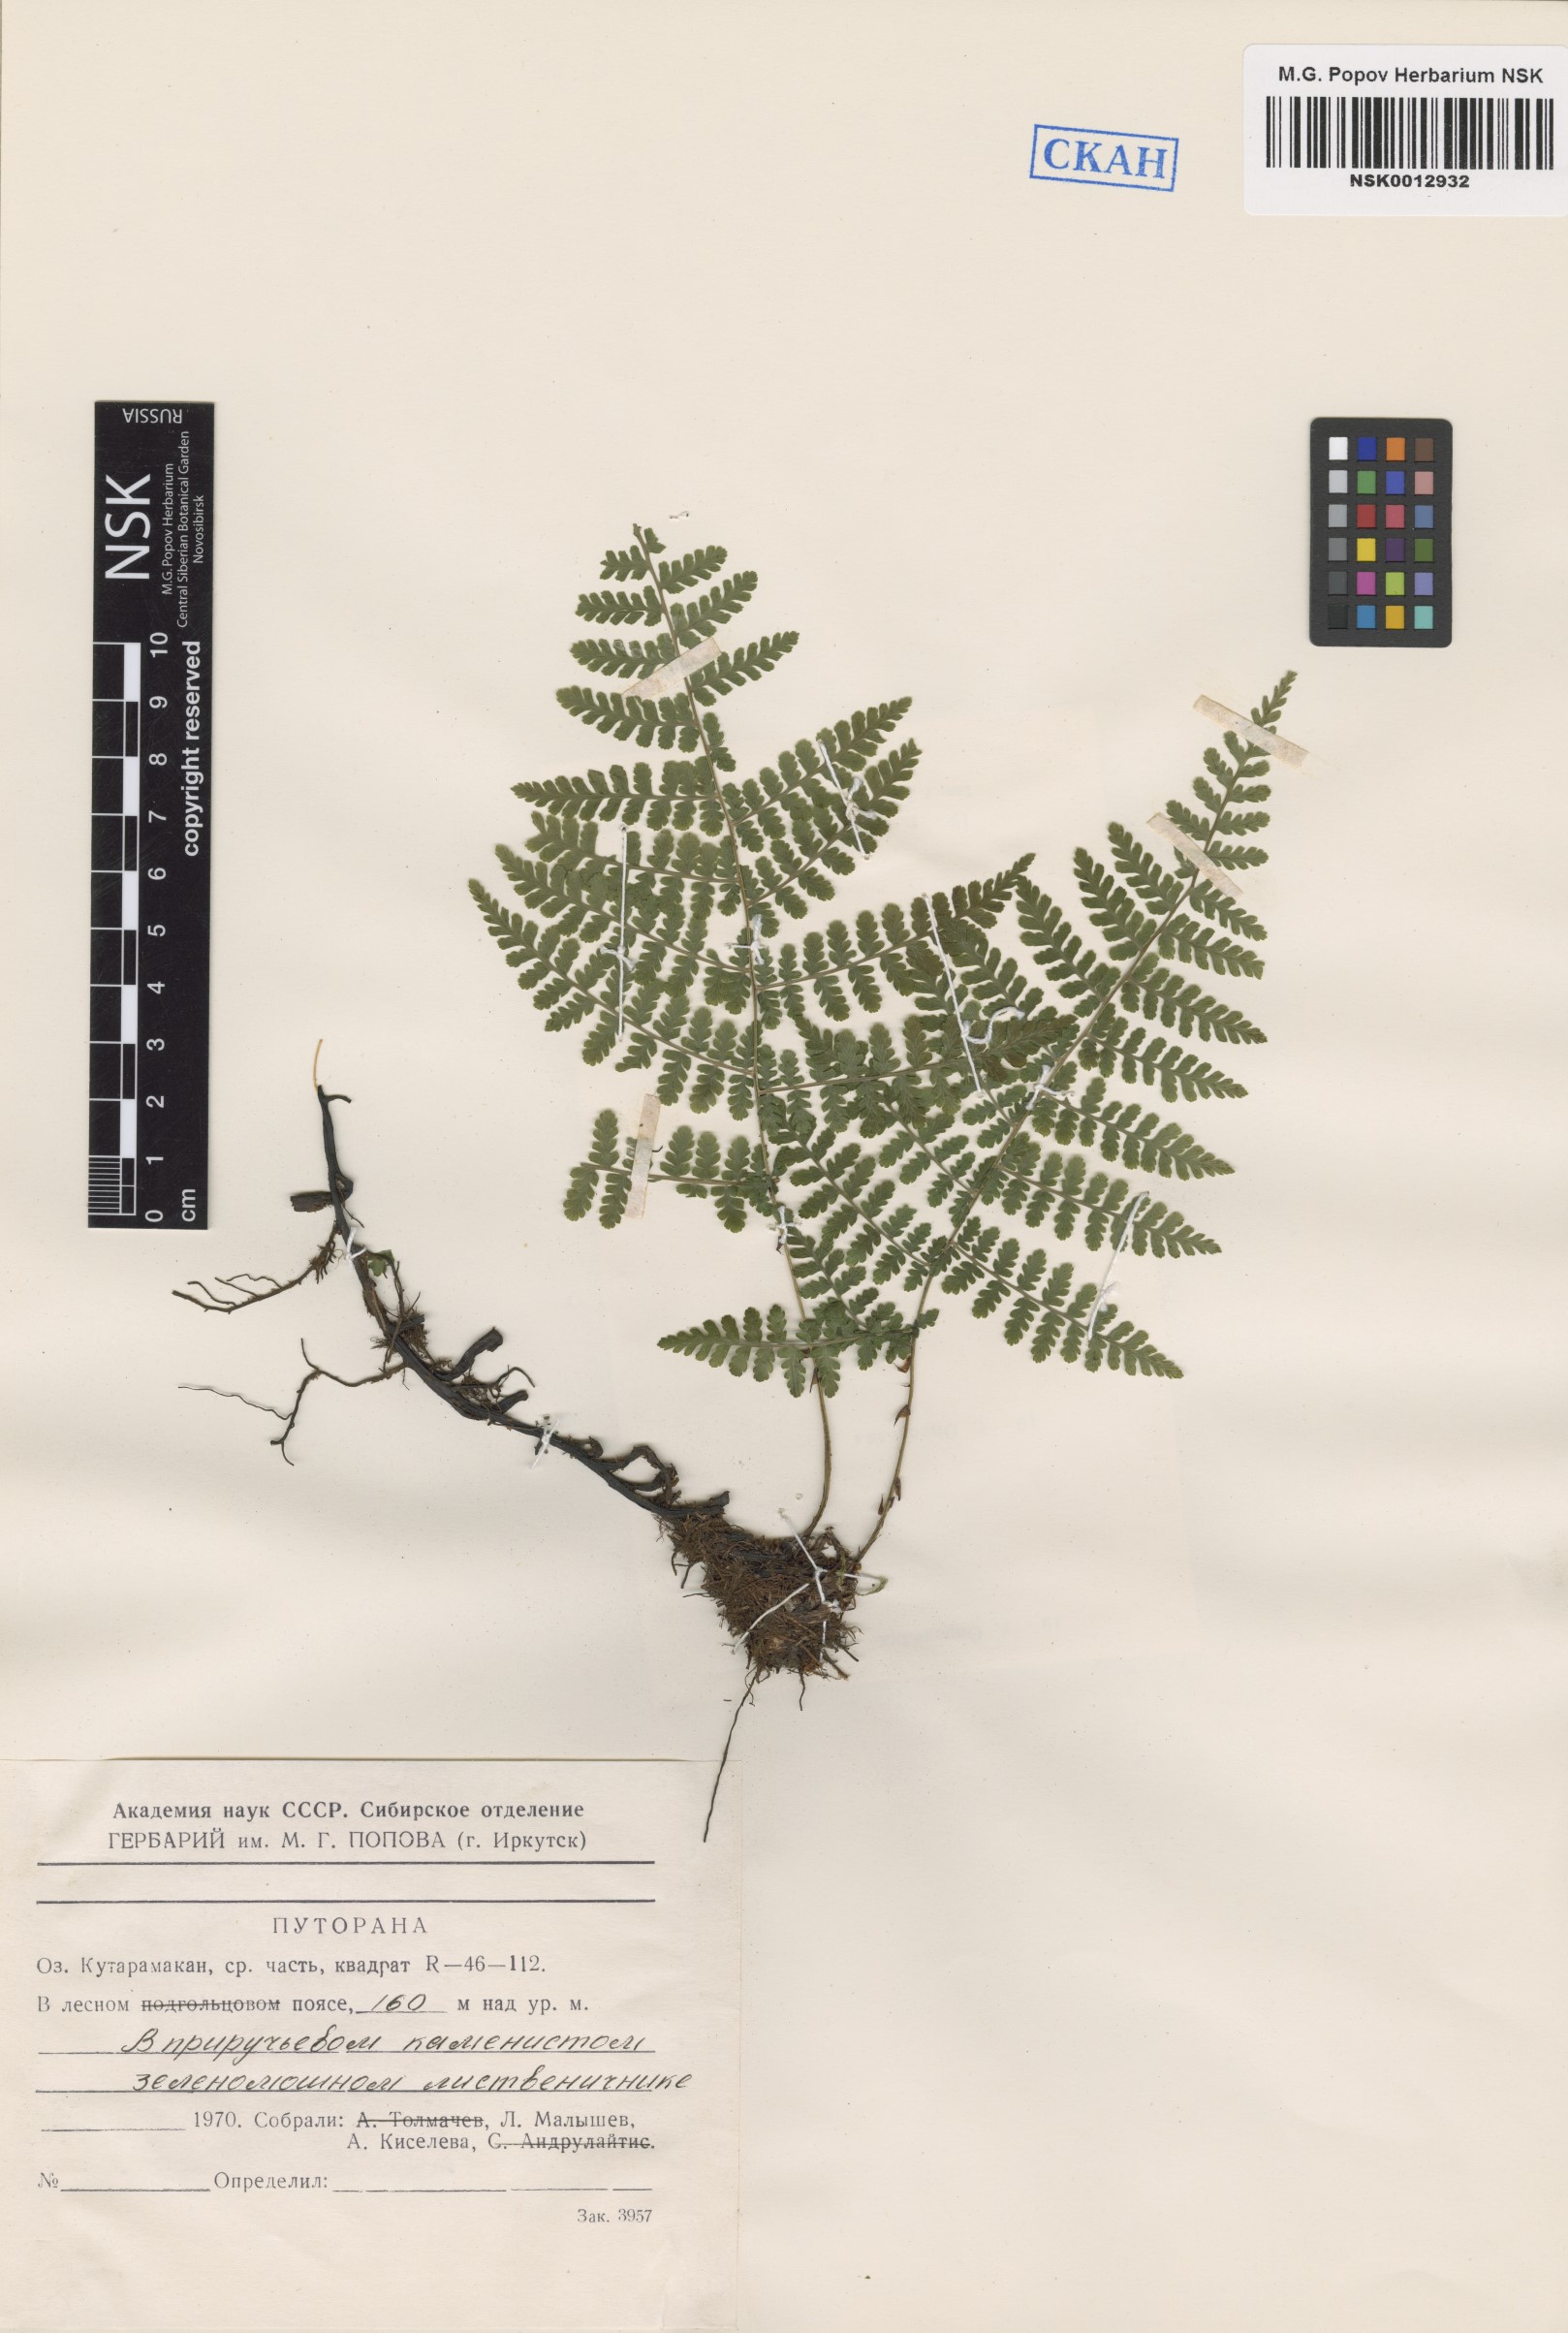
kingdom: Plantae
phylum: Tracheophyta
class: Polypodiopsida
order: Polypodiales
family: Athyriaceae
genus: Diplazium
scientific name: Diplazium sibiricum
